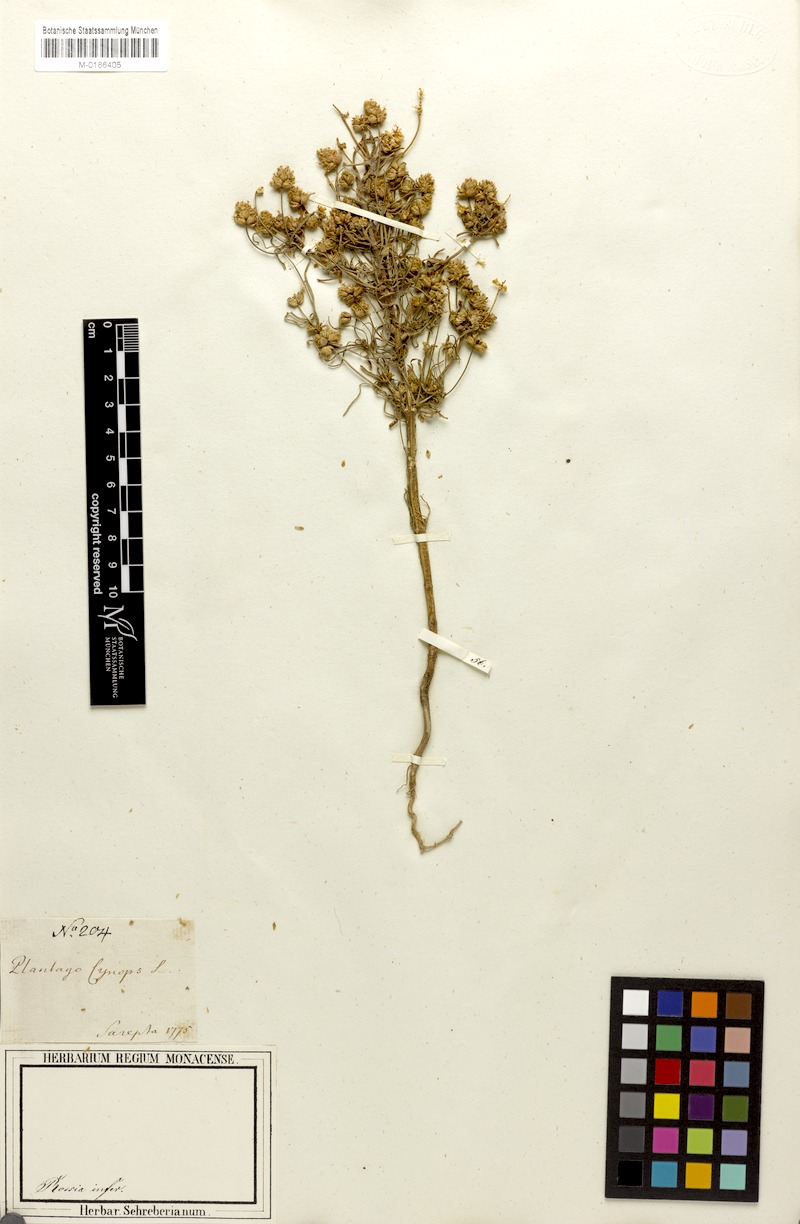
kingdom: Plantae
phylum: Tracheophyta
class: Magnoliopsida
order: Lamiales
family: Plantaginaceae
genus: Plantago
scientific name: Plantago arenaria
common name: Branched plantain
